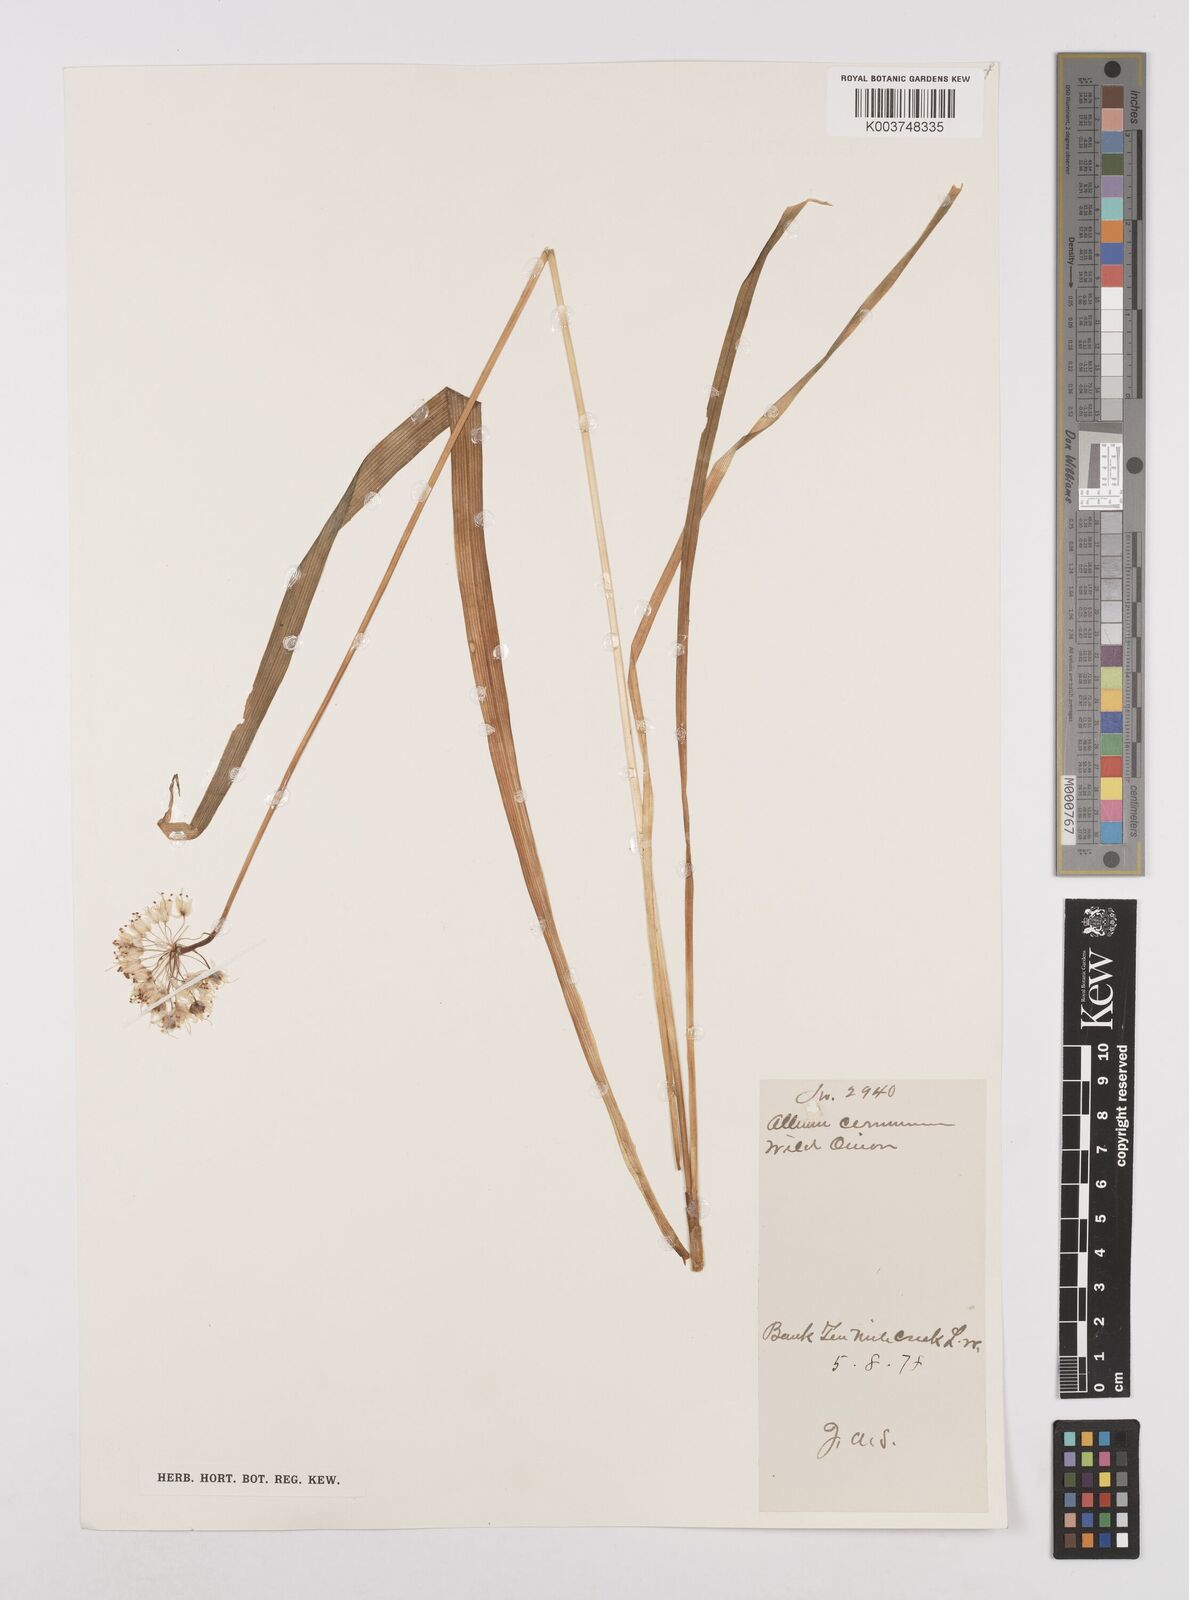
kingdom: Plantae
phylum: Tracheophyta
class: Liliopsida
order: Asparagales
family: Amaryllidaceae
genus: Allium
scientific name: Allium cernuum
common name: Nodding onion
